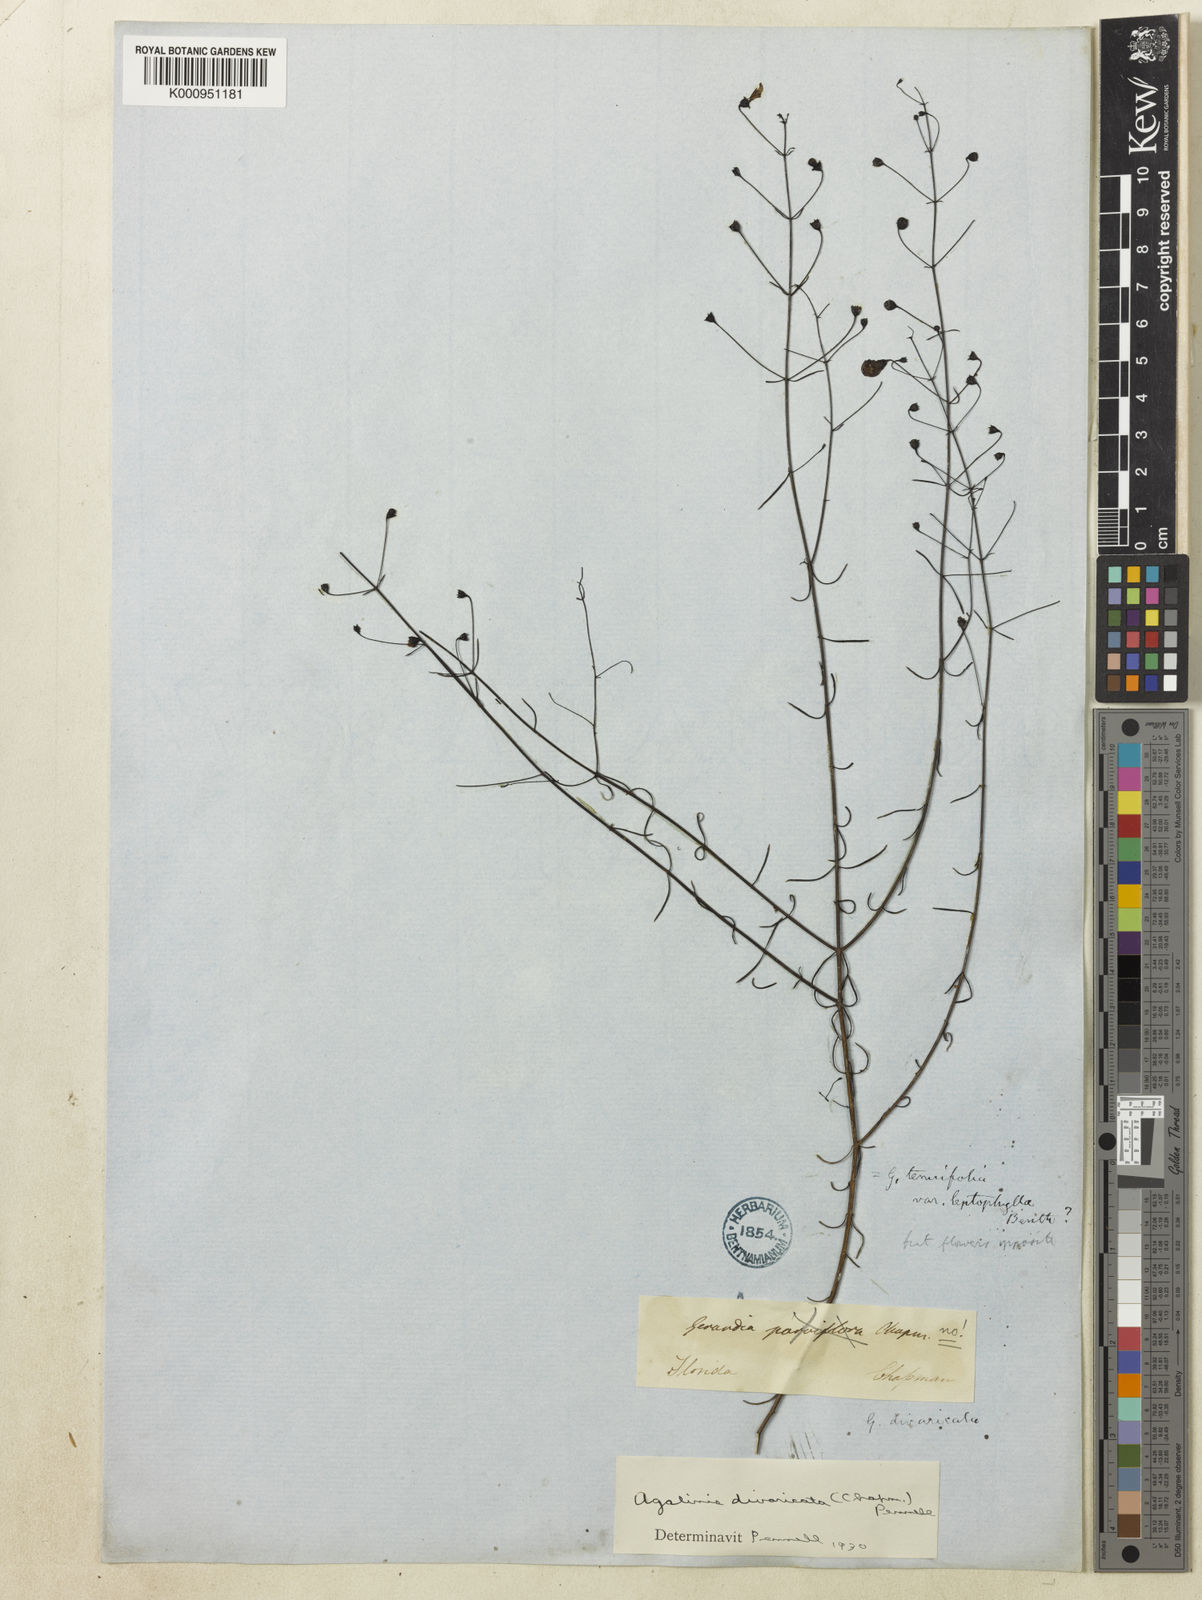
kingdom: Plantae
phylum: Tracheophyta
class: Magnoliopsida
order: Lamiales
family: Orobanchaceae
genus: Agalinis
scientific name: Agalinis divaricata
